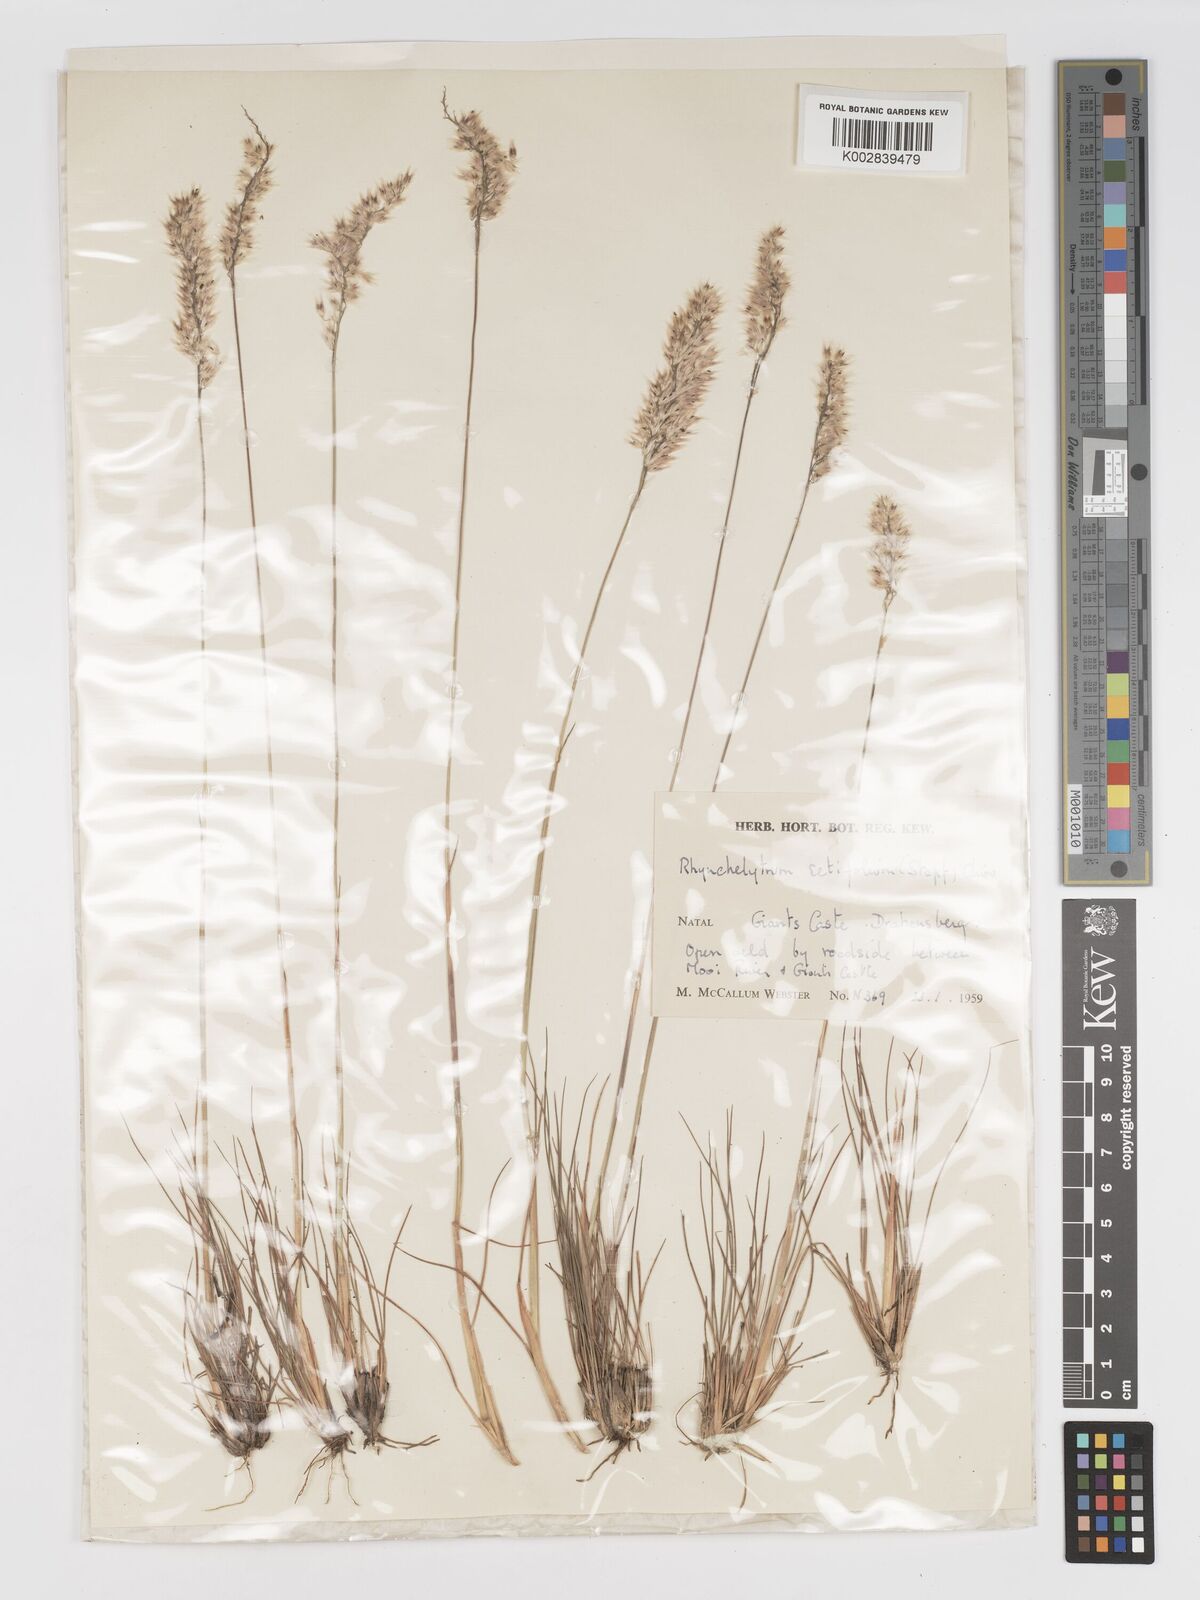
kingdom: Plantae
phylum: Tracheophyta
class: Liliopsida
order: Poales
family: Poaceae
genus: Melinis
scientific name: Melinis nerviglumis
